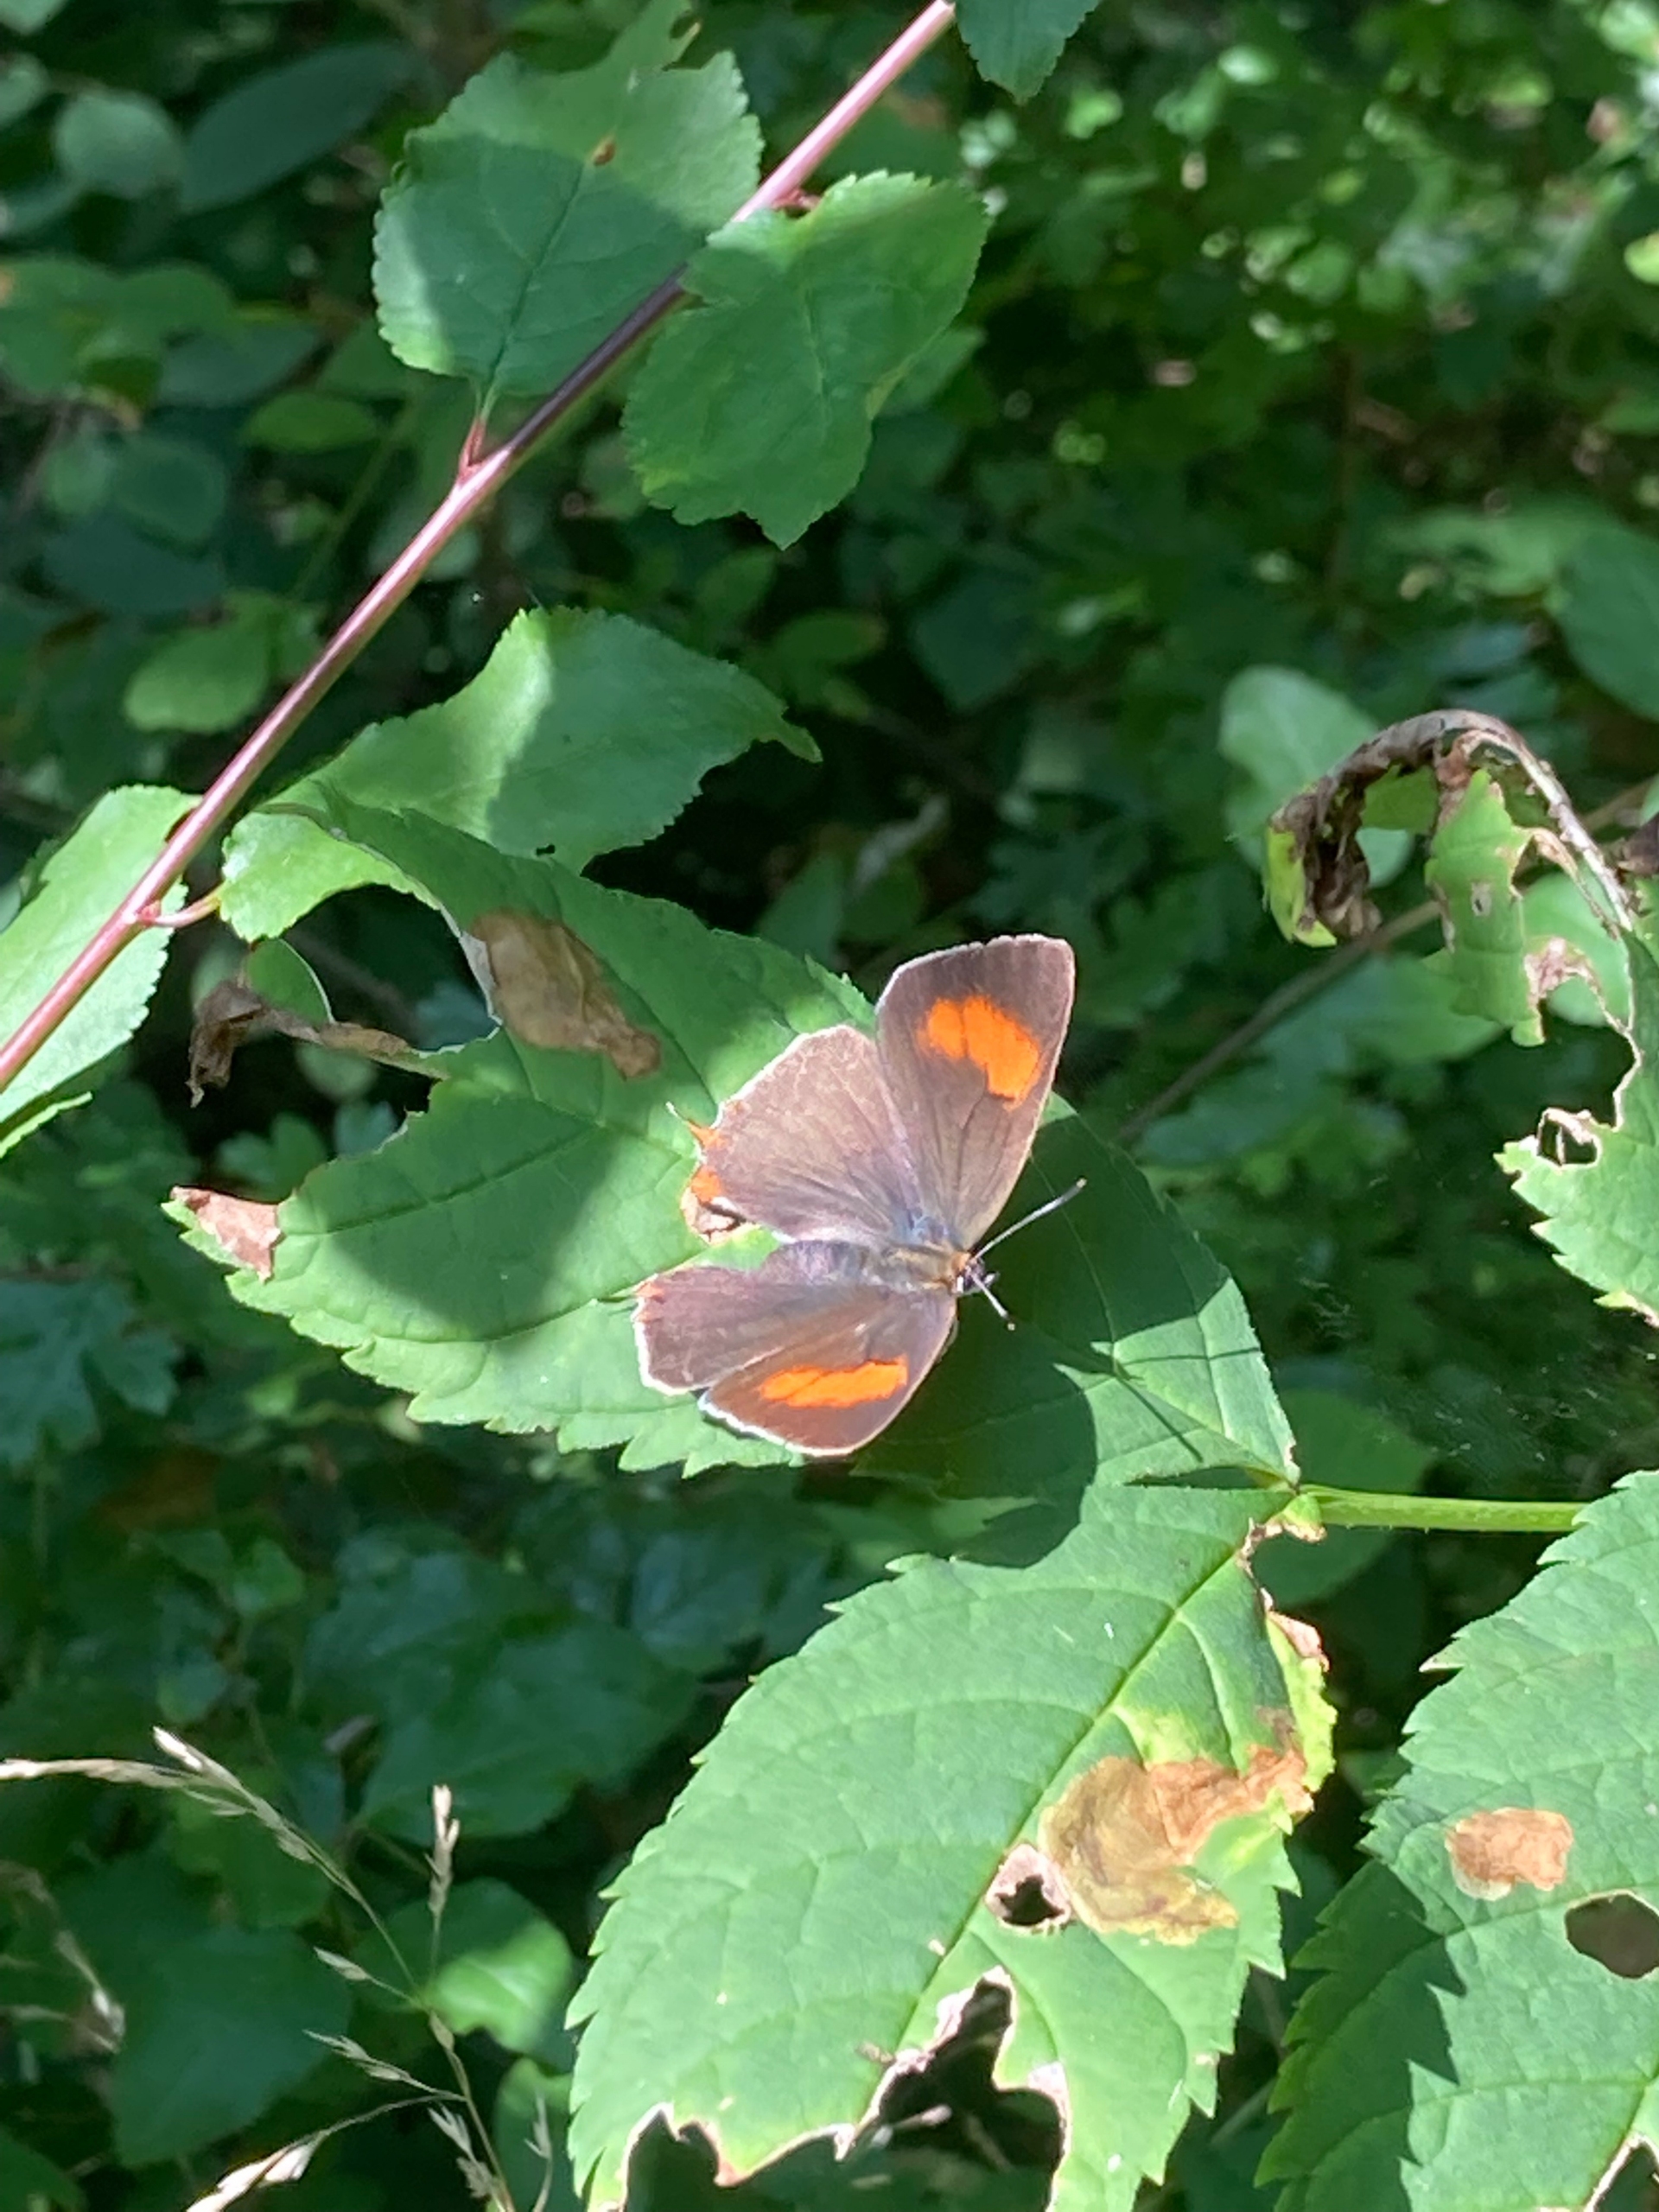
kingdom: Animalia
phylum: Arthropoda
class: Insecta
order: Lepidoptera
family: Lycaenidae
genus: Thecla
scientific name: Thecla betulae
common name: Guldhale
